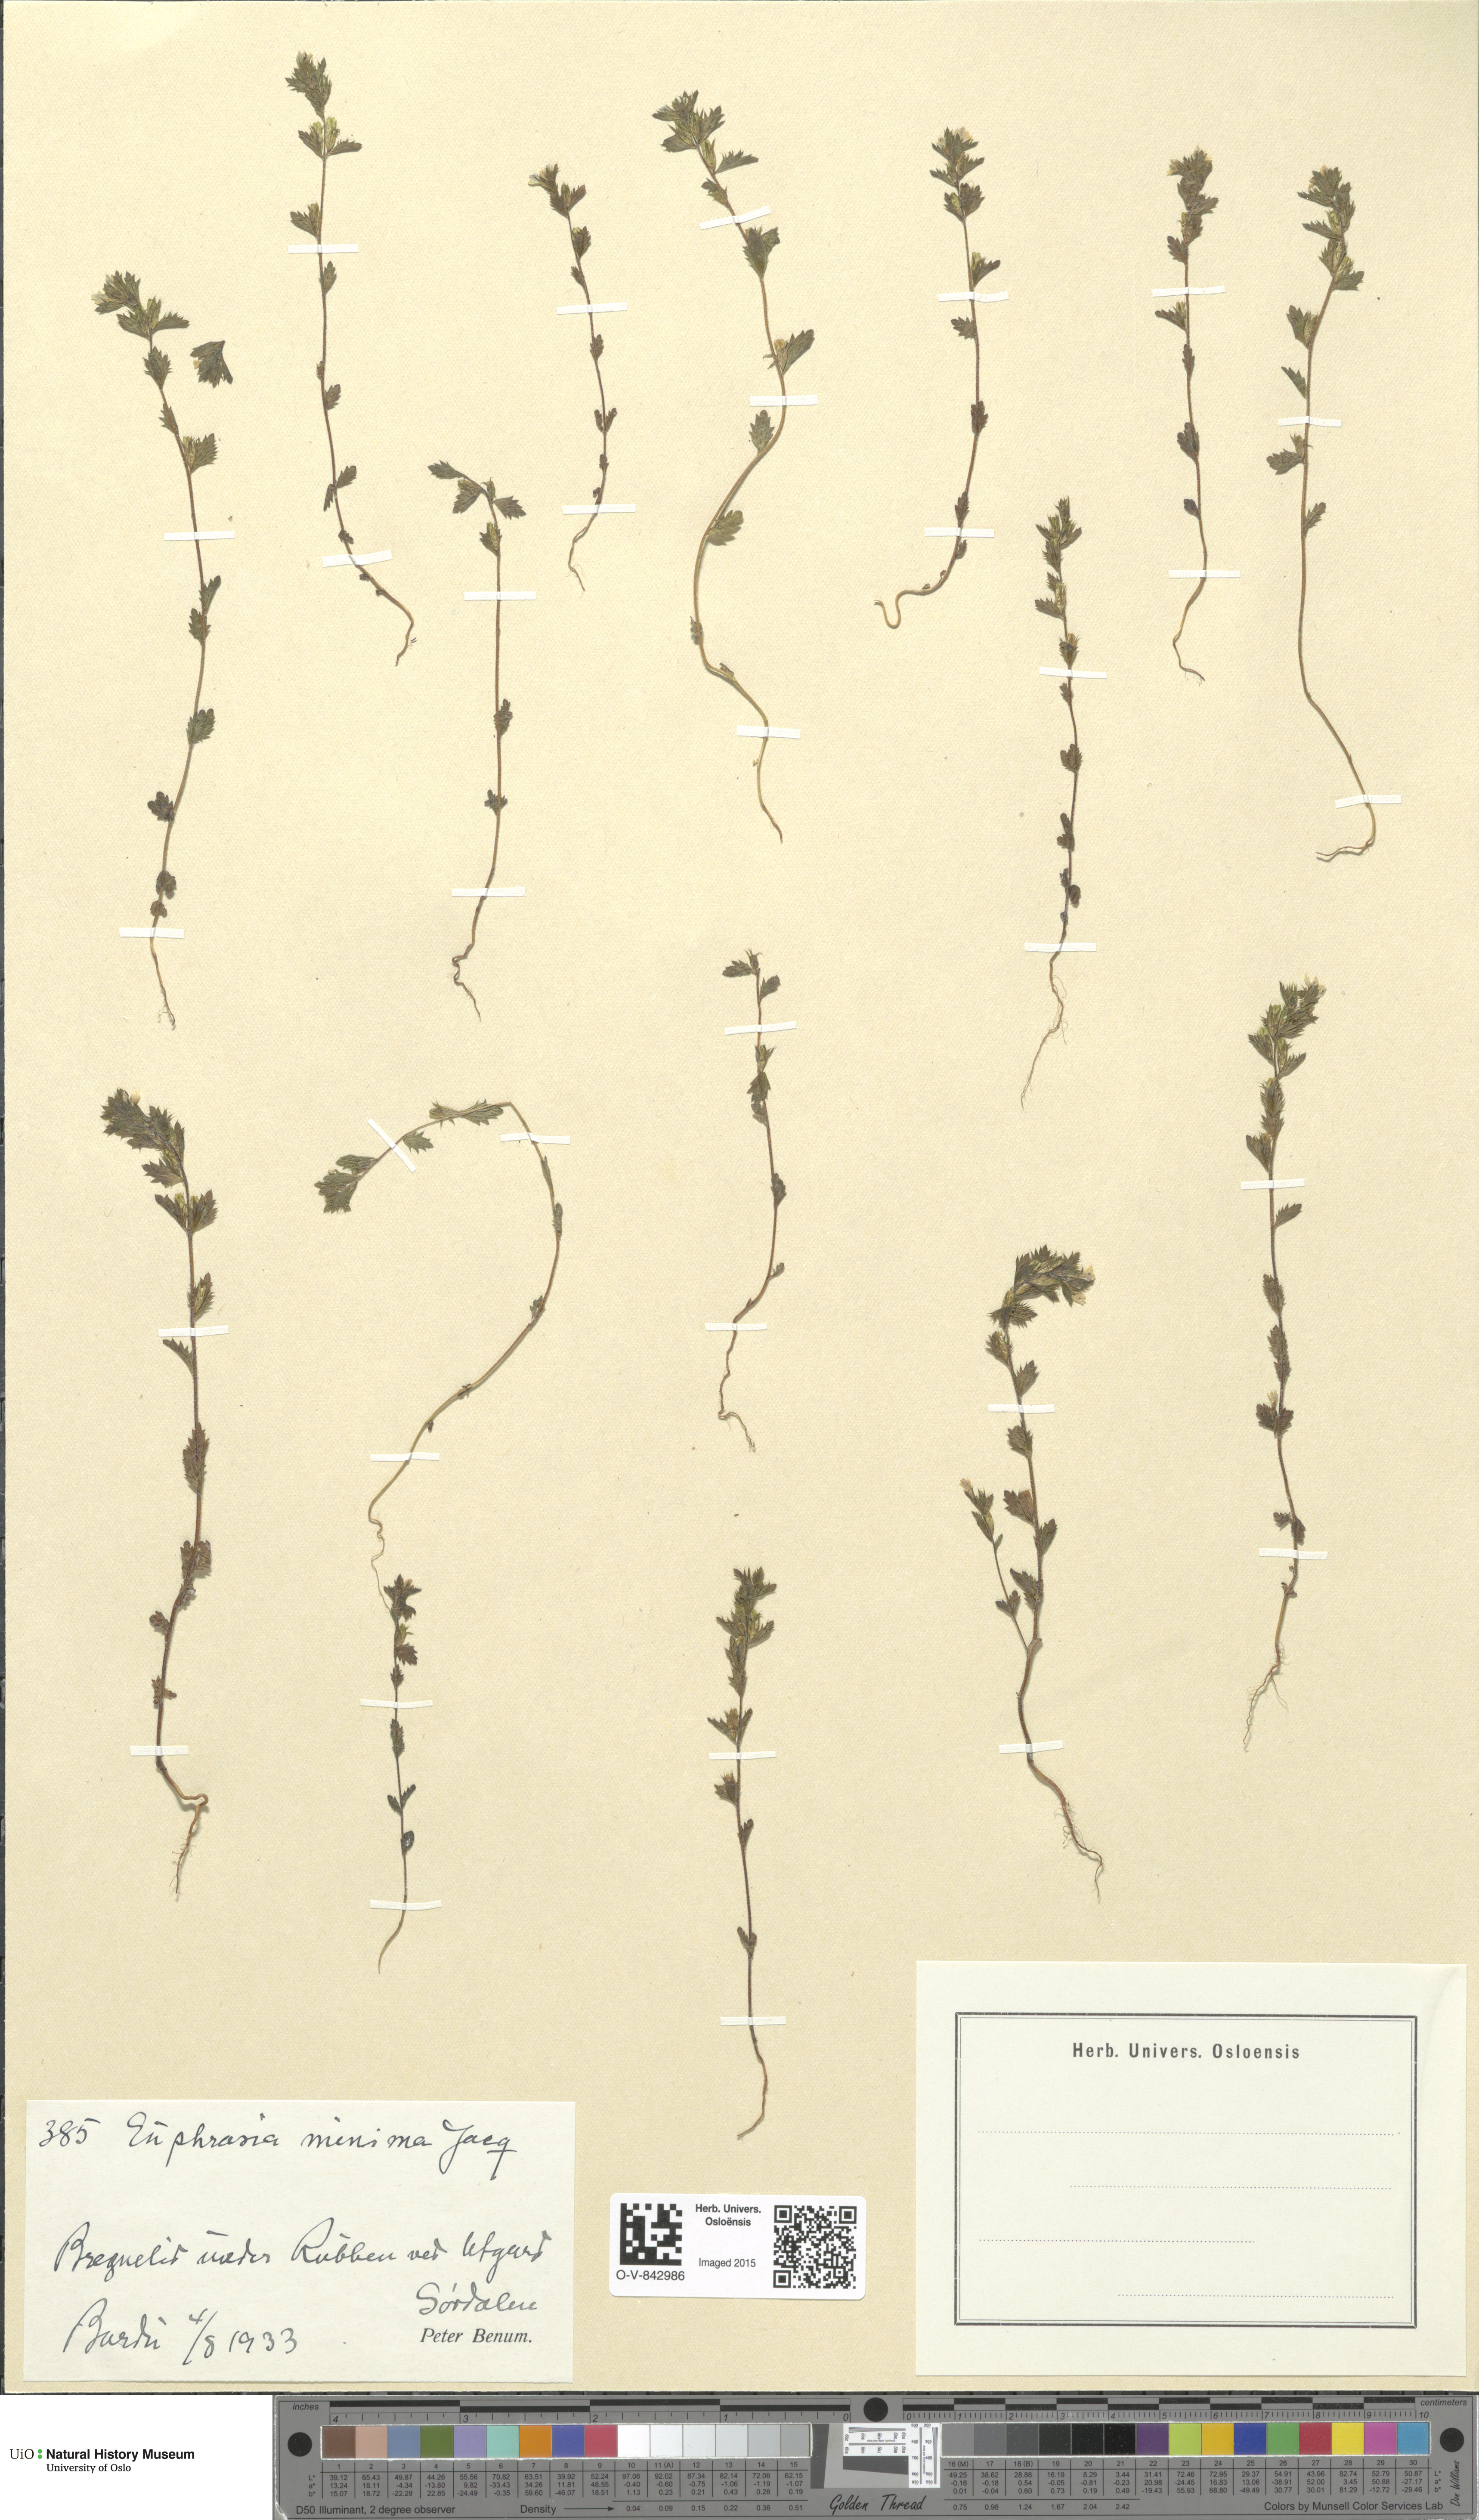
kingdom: Plantae
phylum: Tracheophyta
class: Magnoliopsida
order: Lamiales
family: Orobanchaceae
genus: Euphrasia
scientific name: Euphrasia wettsteinii
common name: Wettstein's eyebright
